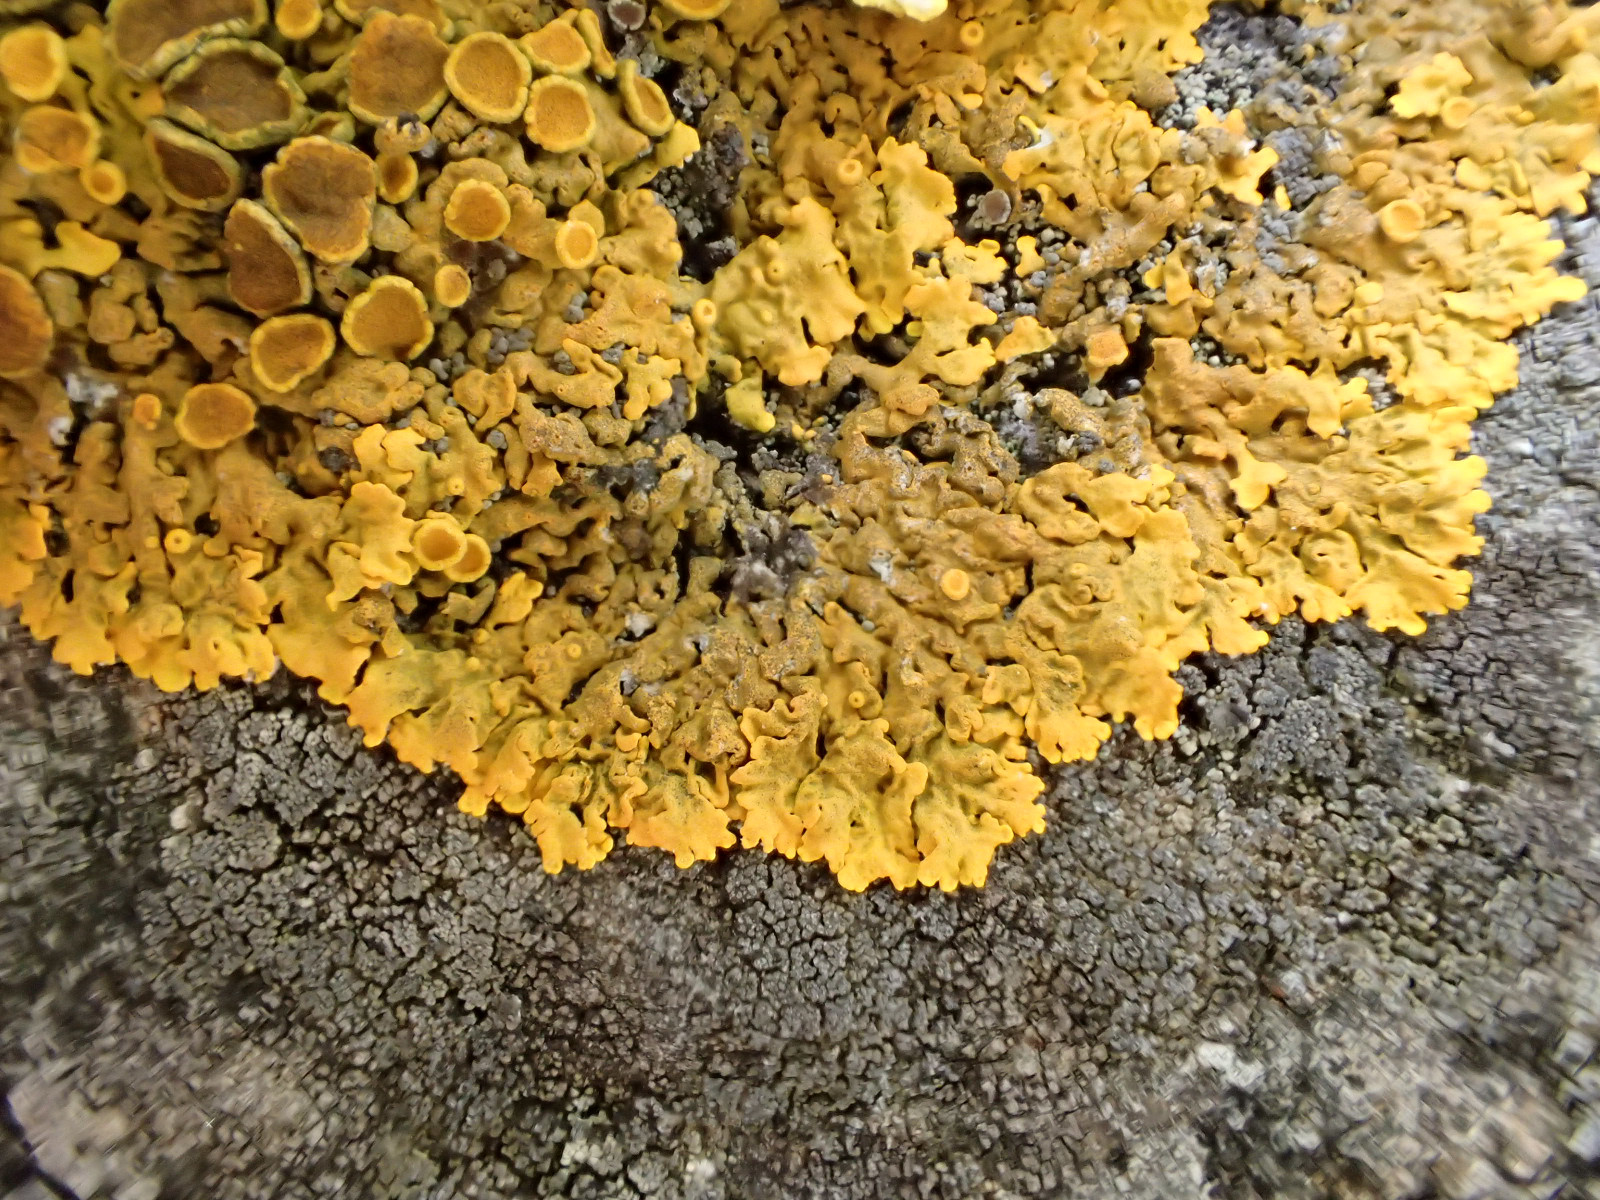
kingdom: Fungi
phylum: Ascomycota
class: Lecanoromycetes
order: Teloschistales
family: Teloschistaceae
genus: Xanthoria
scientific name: Xanthoria parietina
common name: almindelig væggelav
